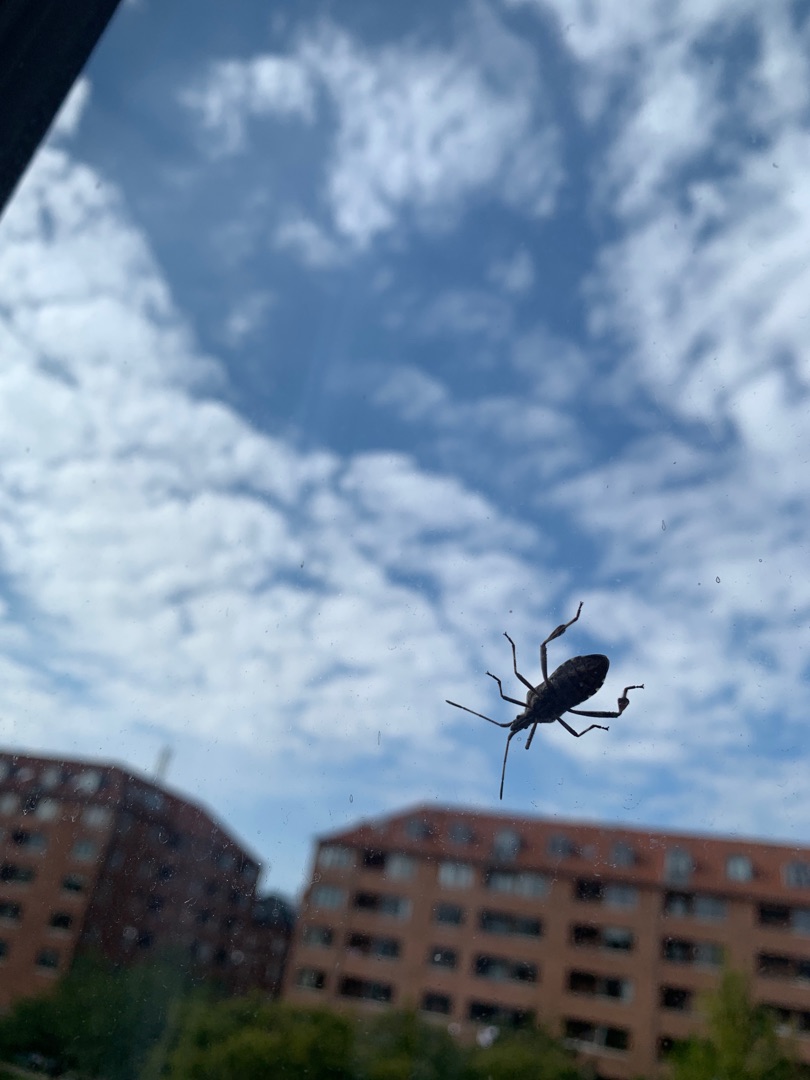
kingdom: Animalia
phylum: Arthropoda
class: Insecta
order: Hemiptera
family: Coreidae
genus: Leptoglossus
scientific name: Leptoglossus occidentalis
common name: Amerikansk fyrretæge
